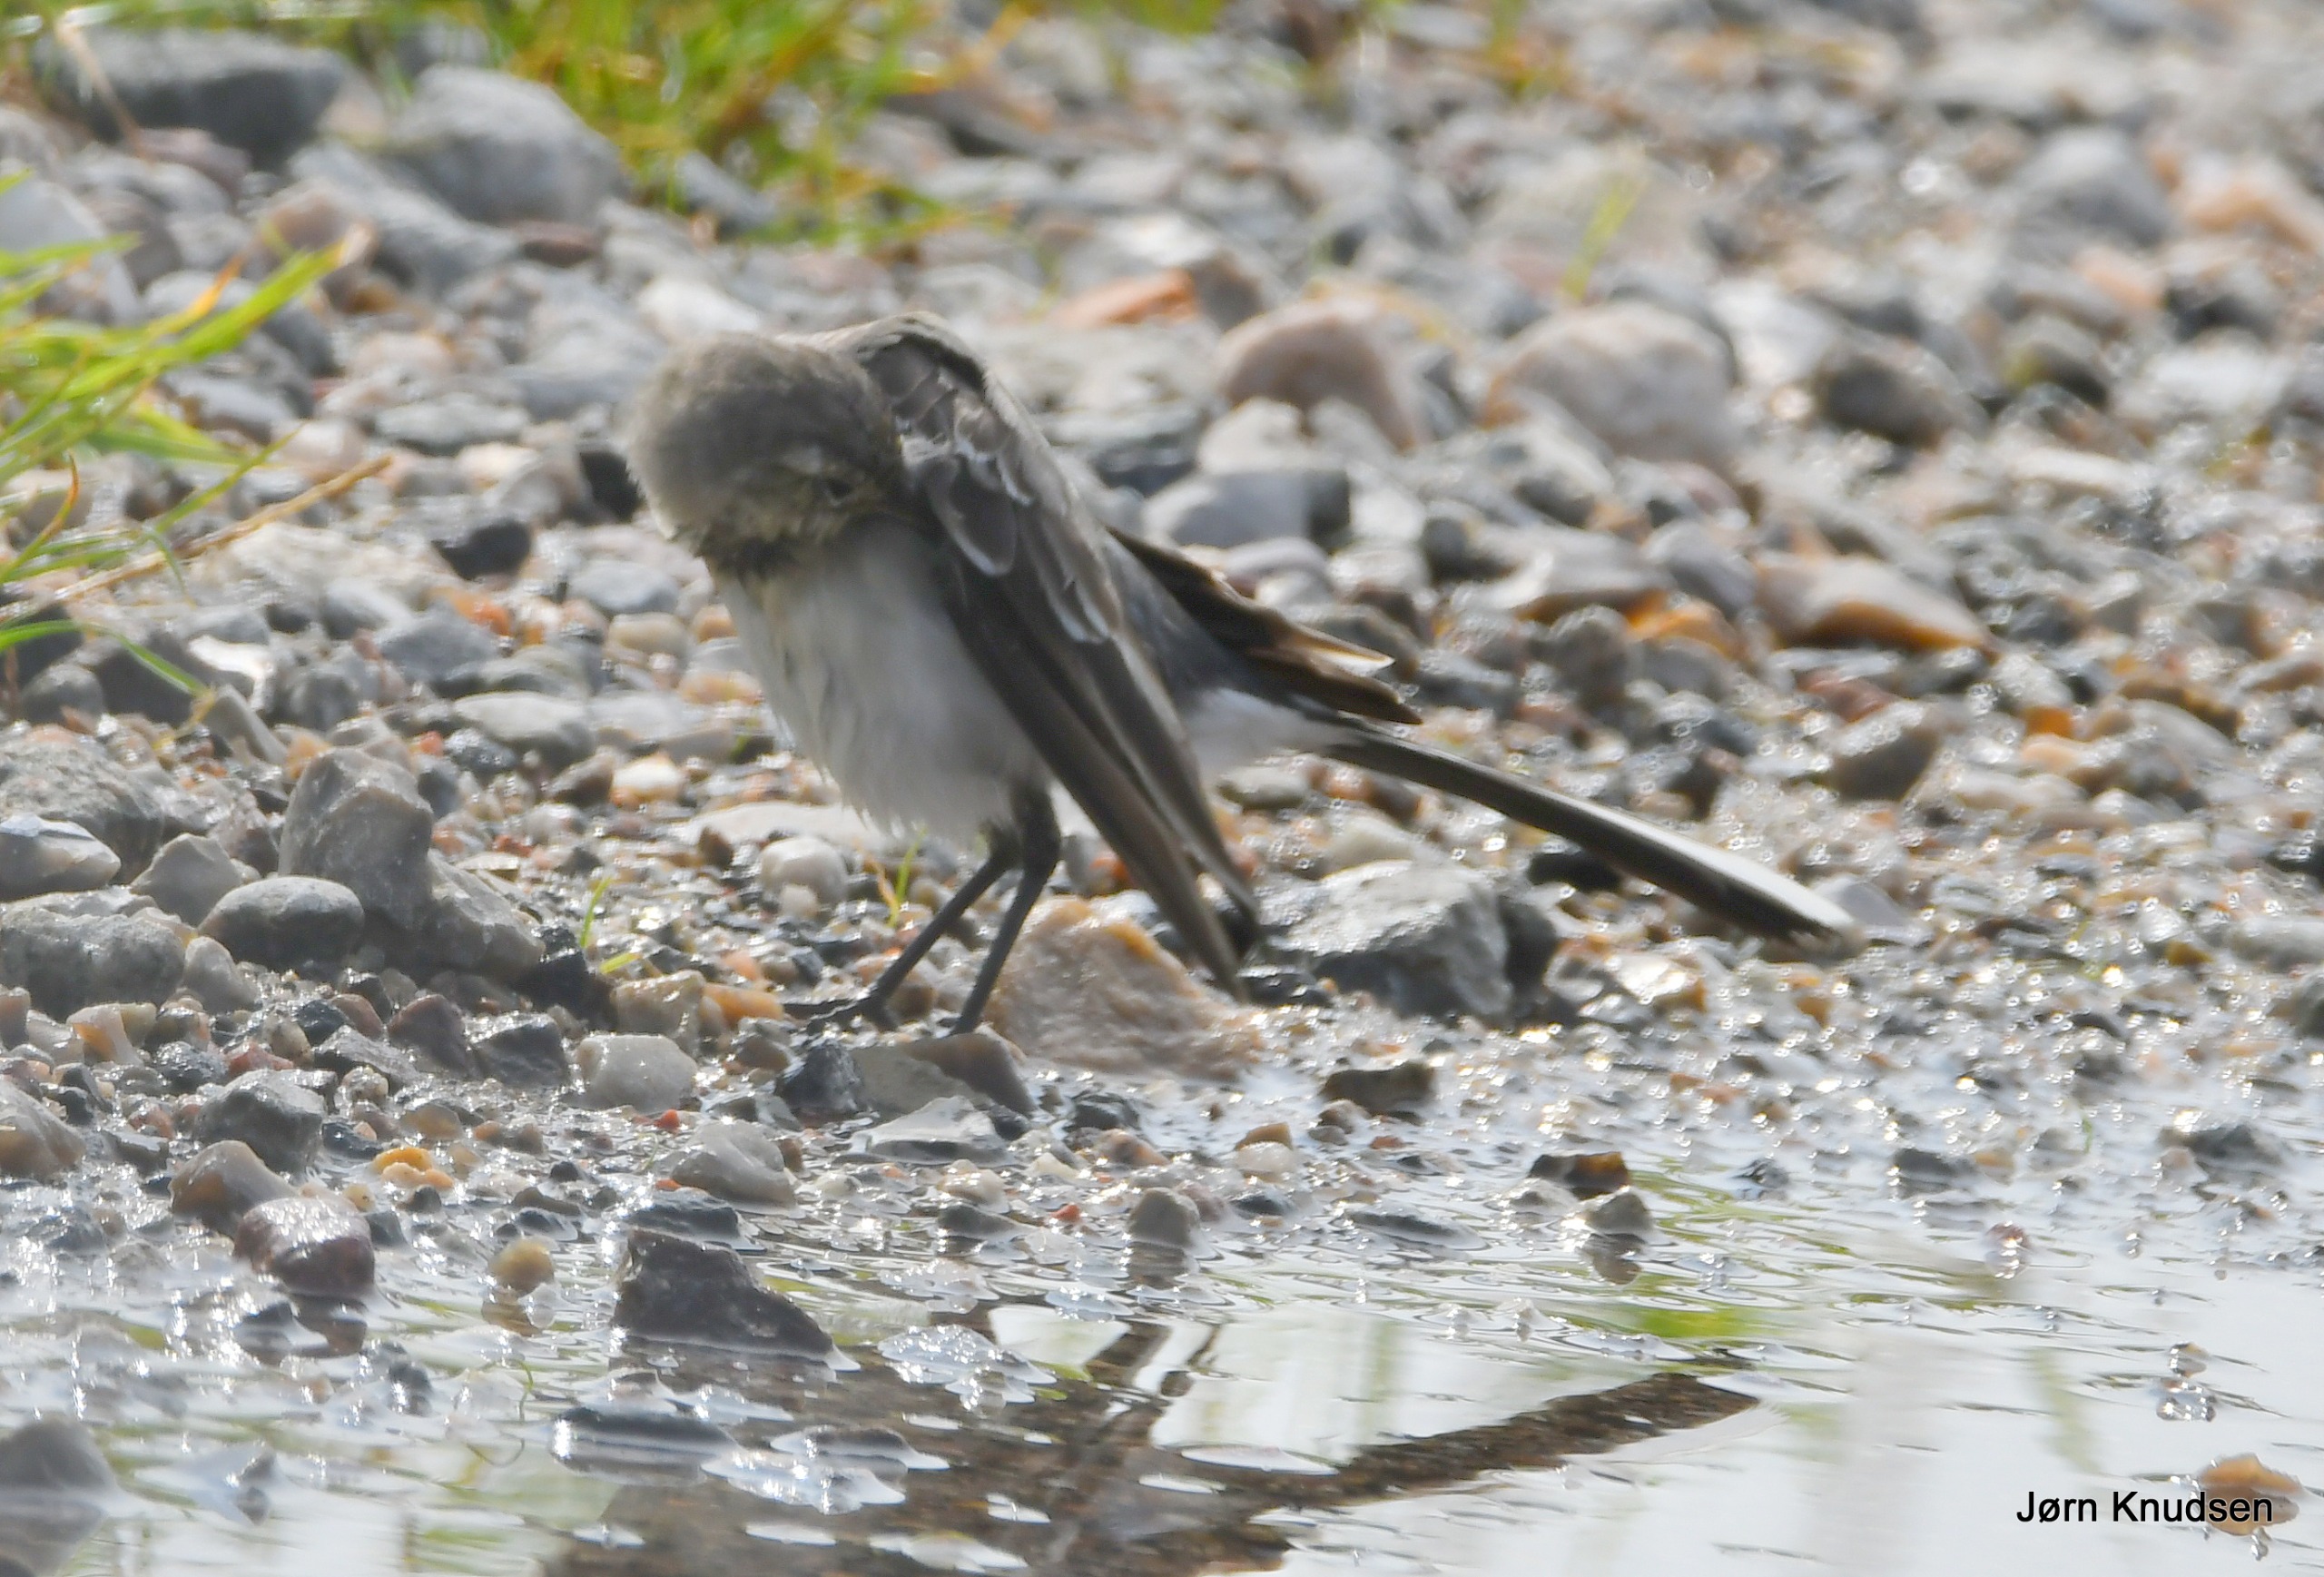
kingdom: Animalia
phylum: Chordata
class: Aves
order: Passeriformes
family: Motacillidae
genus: Motacilla
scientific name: Motacilla alba
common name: Hvid vipstjert
